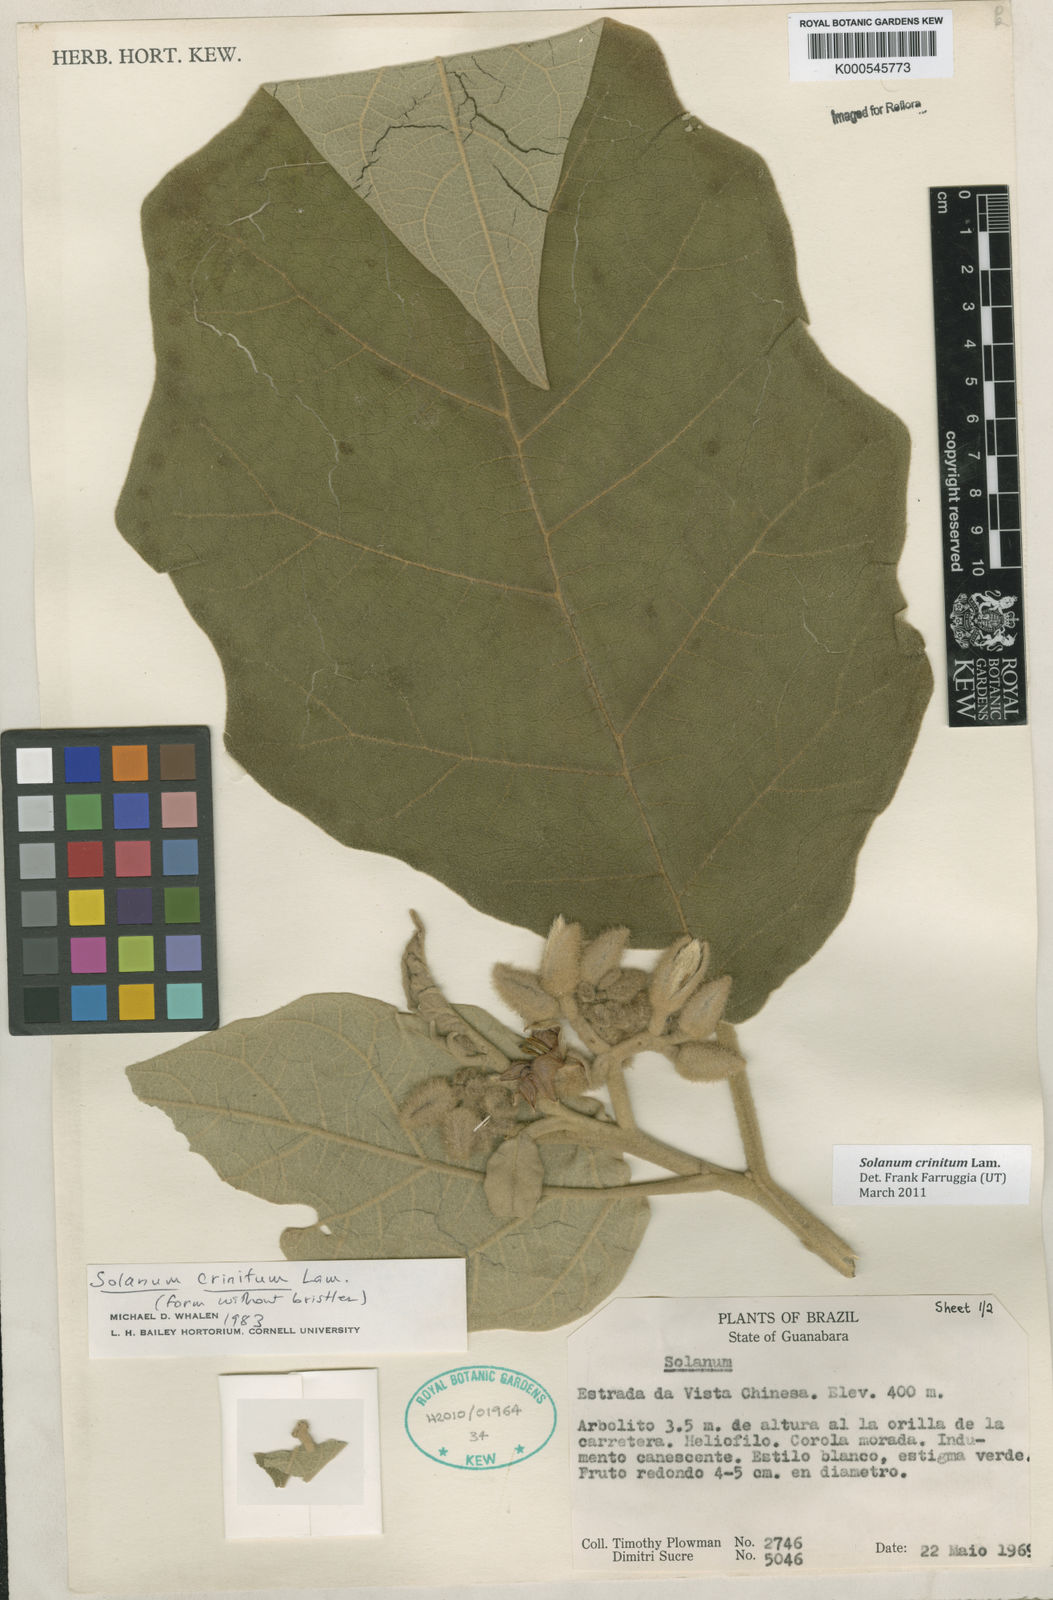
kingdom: Plantae
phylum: Tracheophyta
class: Magnoliopsida
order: Solanales
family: Solanaceae
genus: Solanum
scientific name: Solanum crinitum
